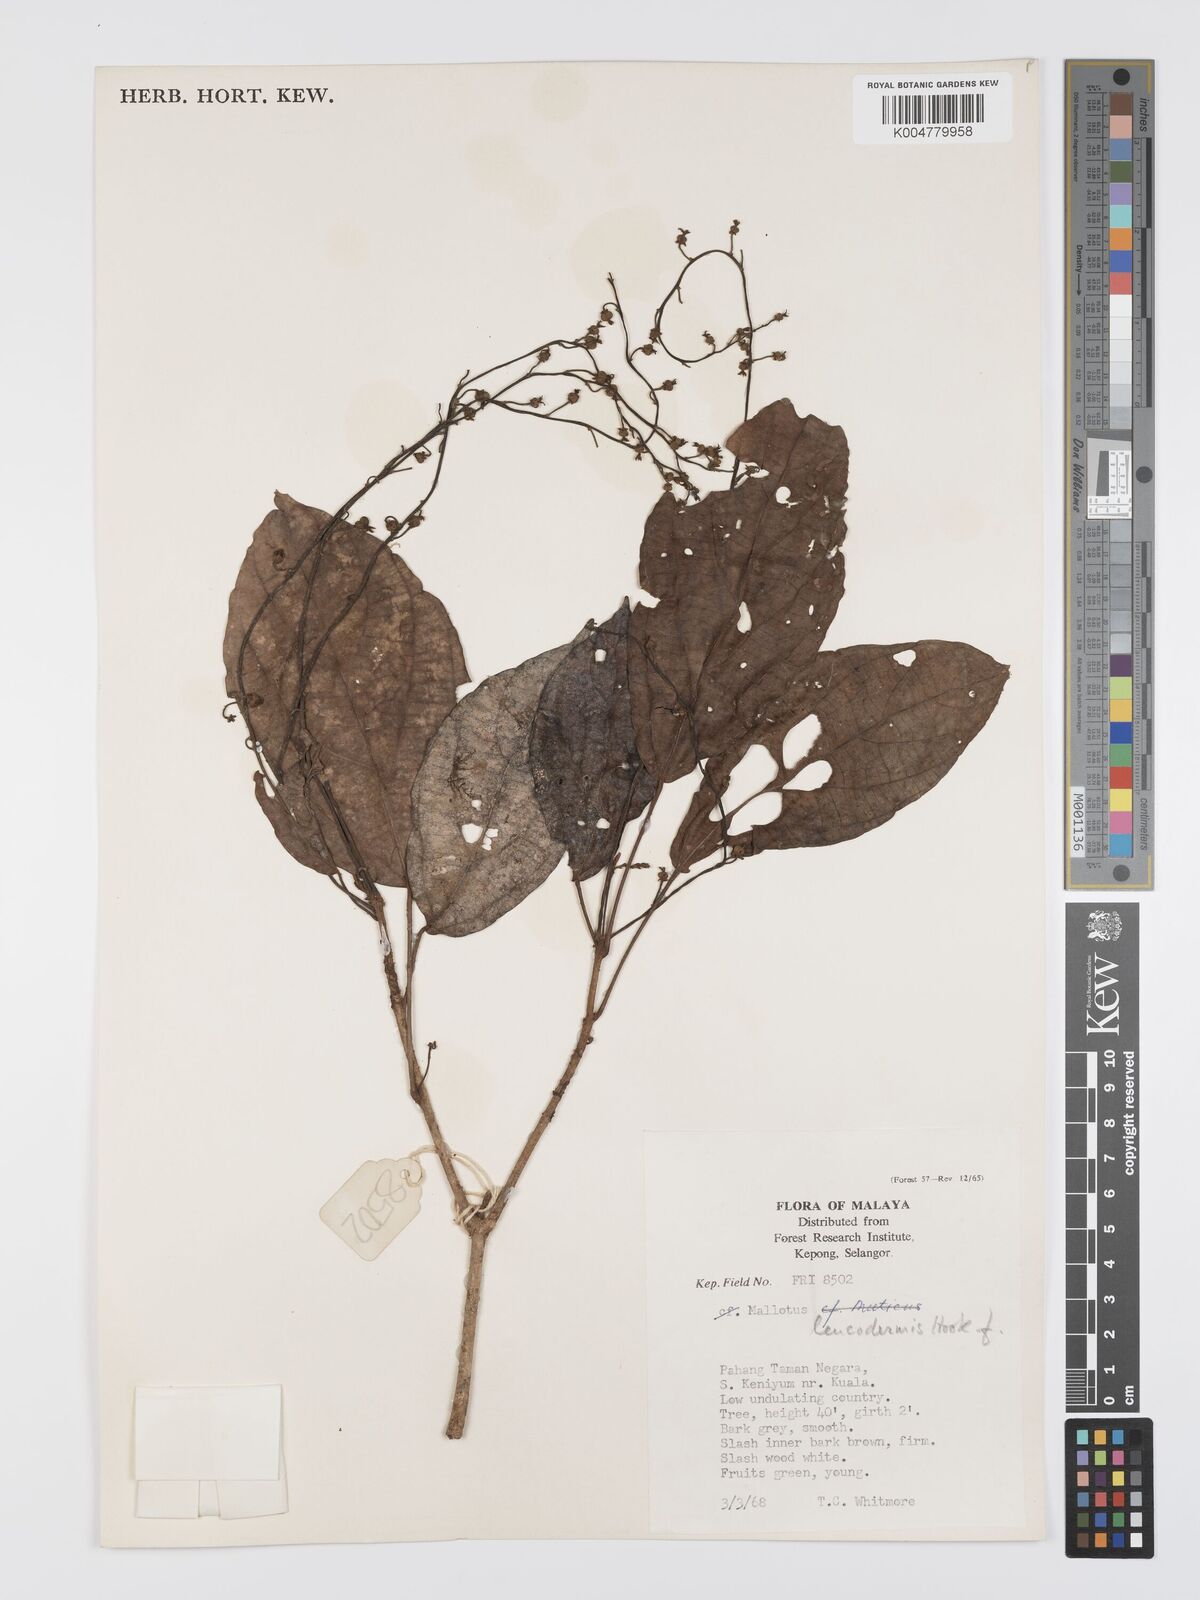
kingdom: Plantae
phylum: Tracheophyta
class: Magnoliopsida
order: Malpighiales
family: Euphorbiaceae
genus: Mallotus
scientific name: Mallotus leucodermis
